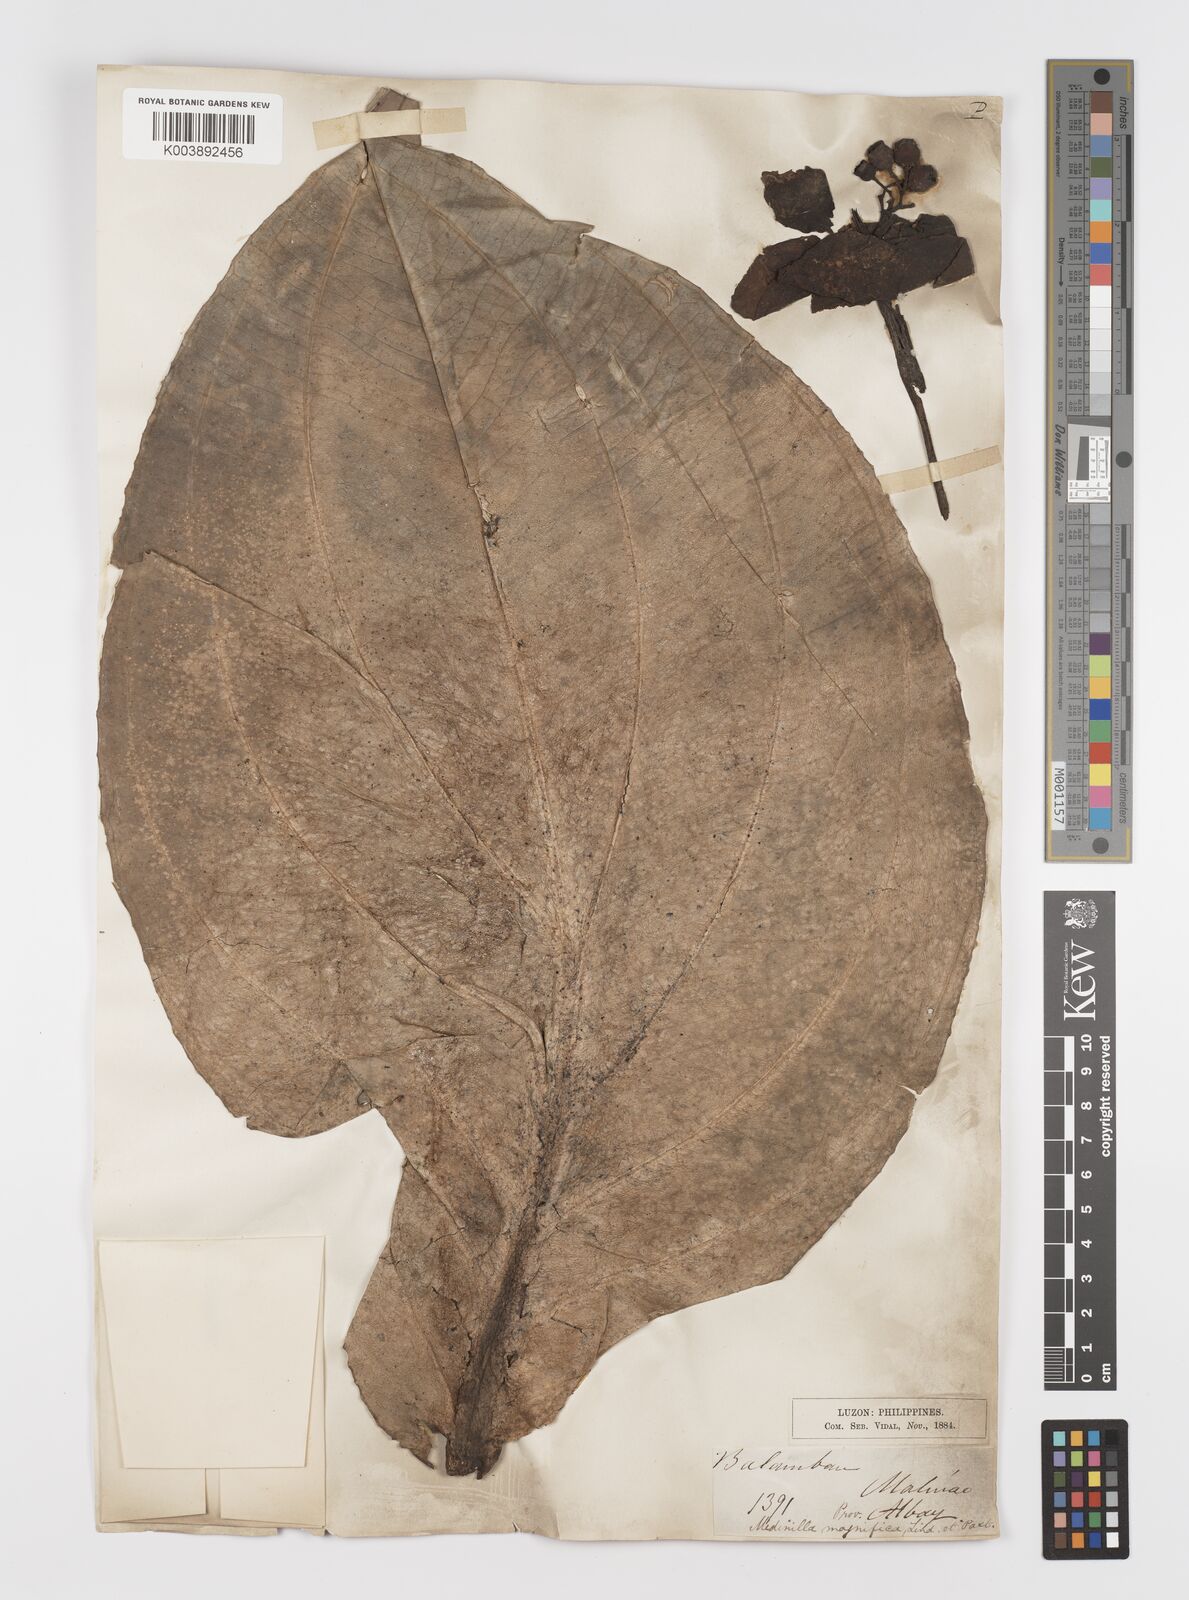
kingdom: Plantae
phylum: Tracheophyta
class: Magnoliopsida
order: Myrtales
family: Melastomataceae
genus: Medinilla
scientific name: Medinilla magnifica
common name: Showy medinilla
